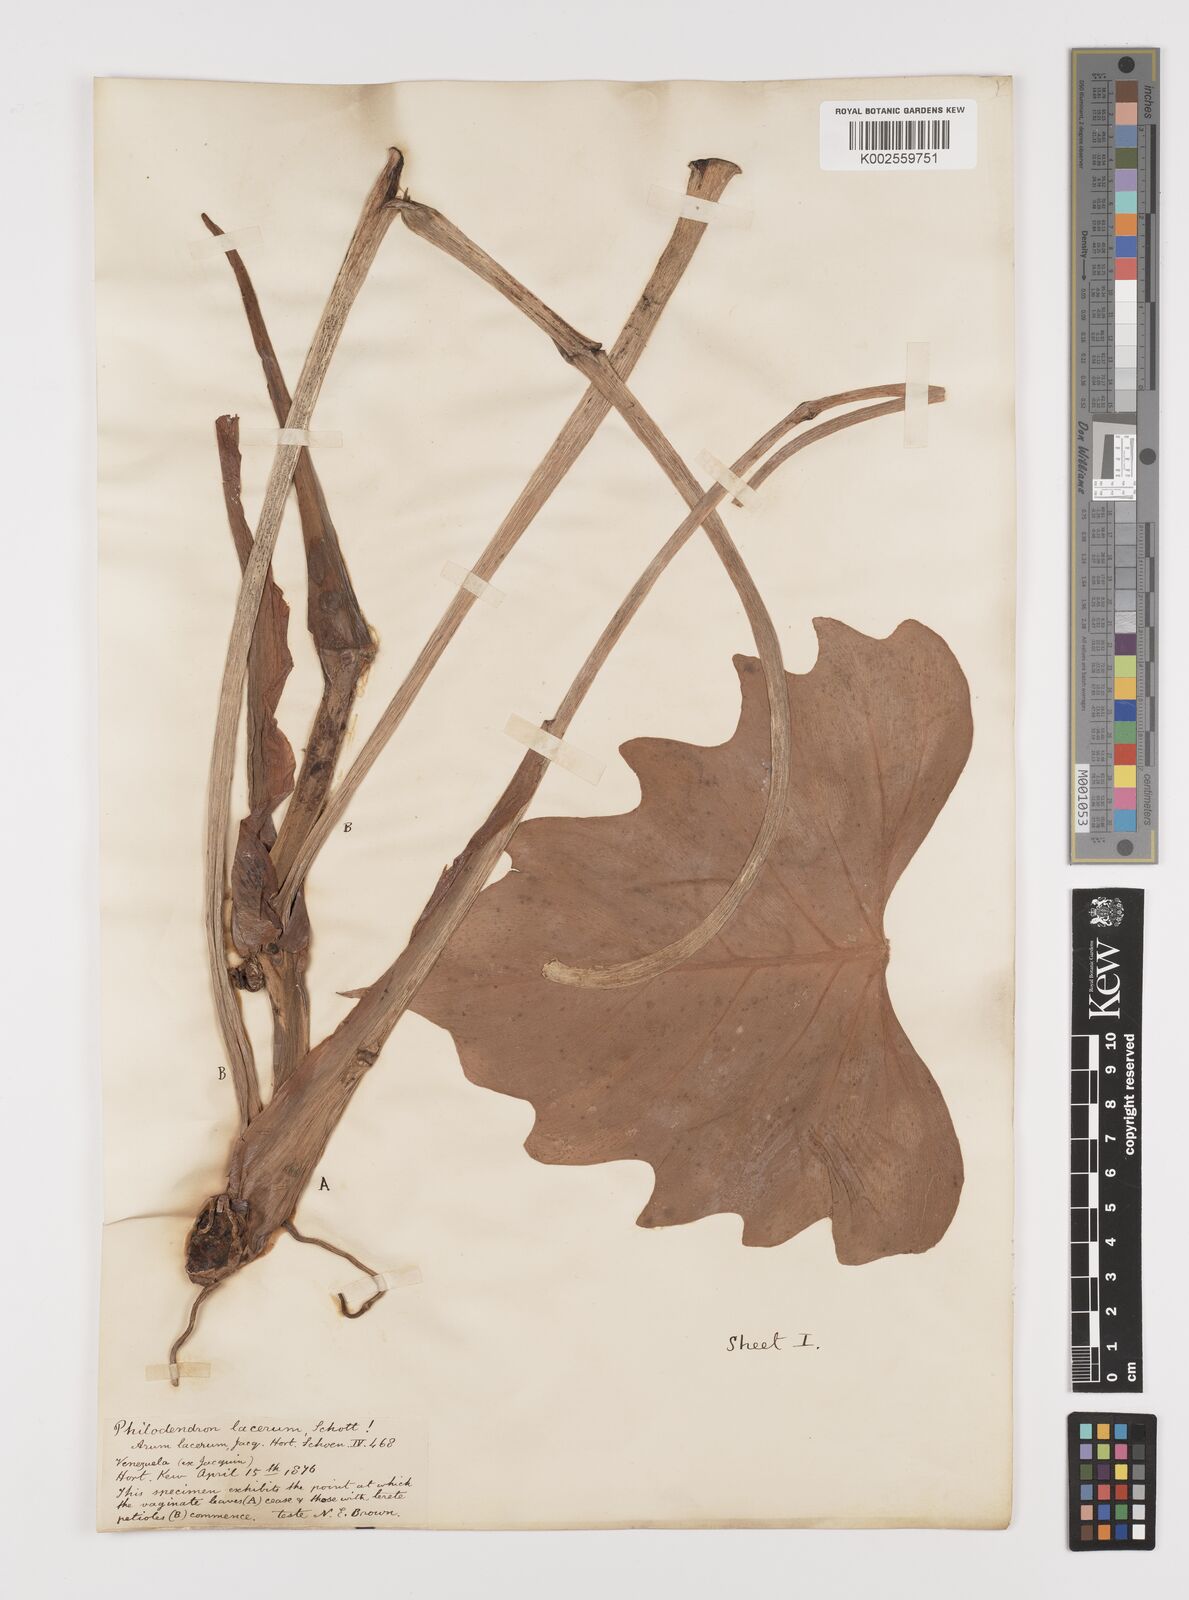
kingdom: Plantae
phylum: Tracheophyta
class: Liliopsida
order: Alismatales
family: Araceae
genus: Philodendron
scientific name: Philodendron lacerum
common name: Philodendron
